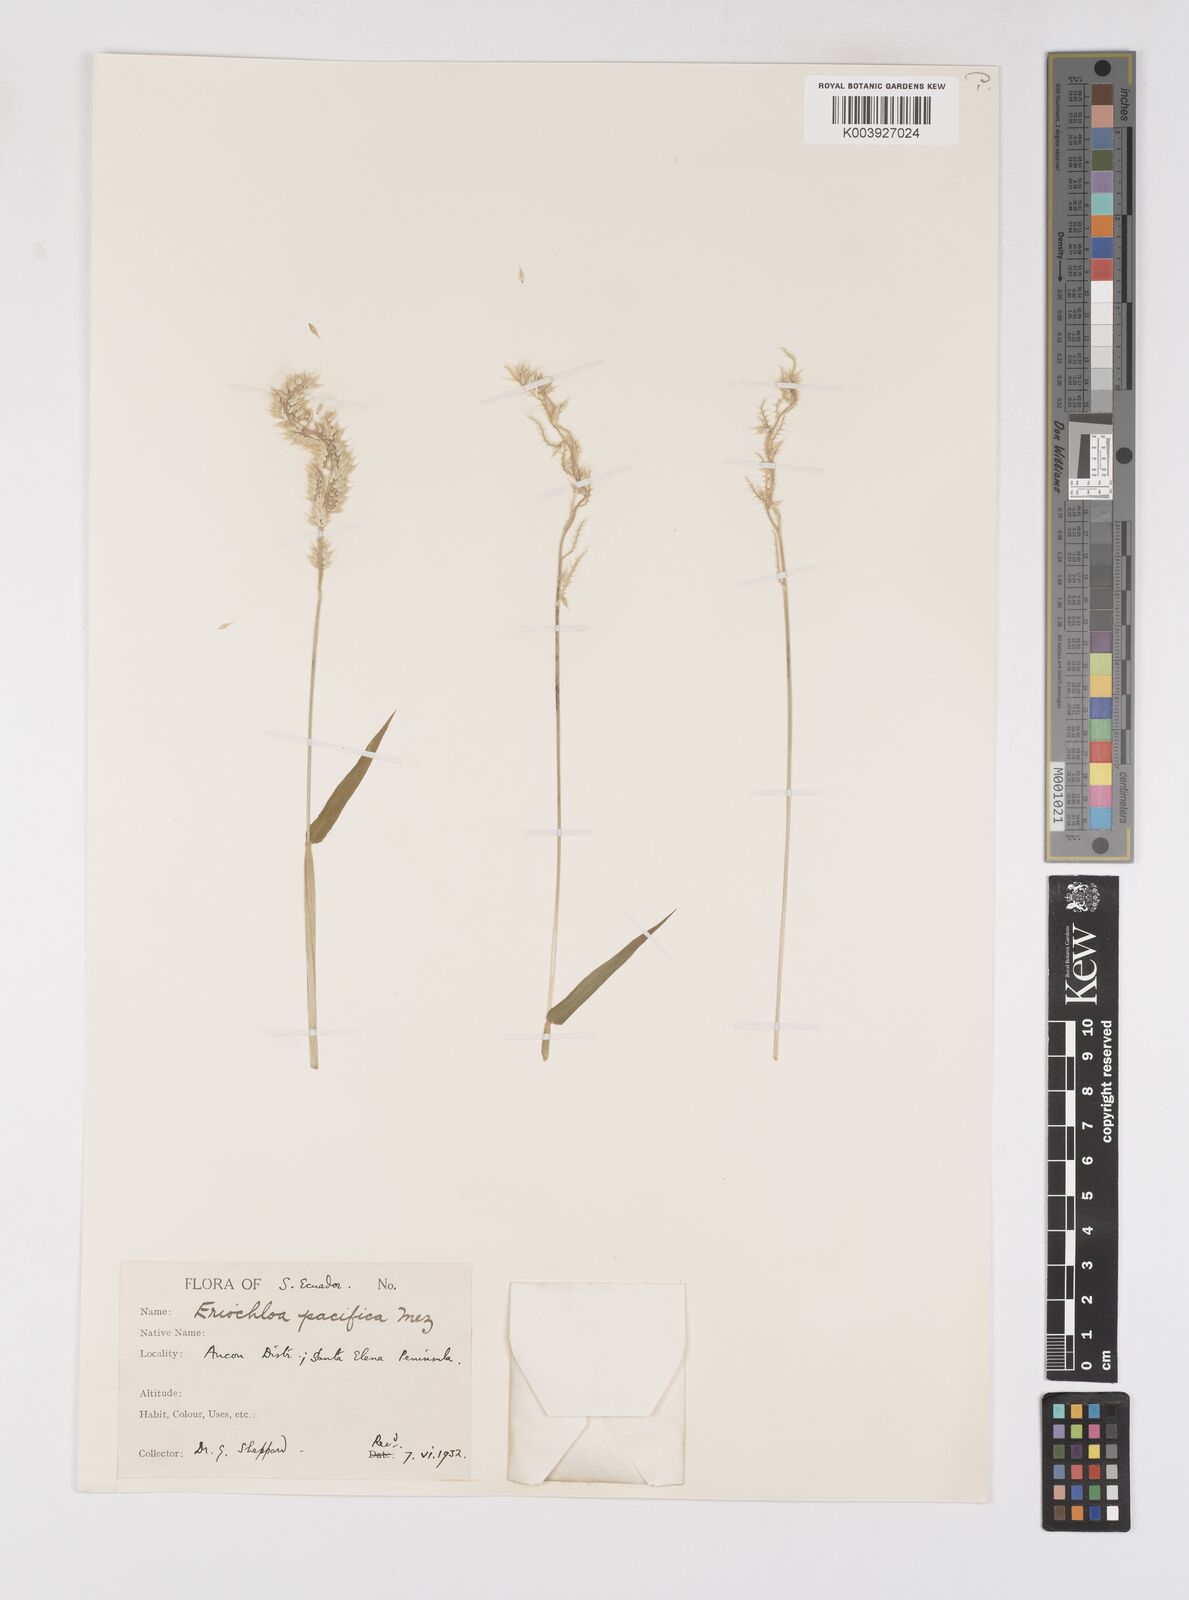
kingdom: Plantae
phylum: Tracheophyta
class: Liliopsida
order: Poales
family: Poaceae
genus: Eriochloa
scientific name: Eriochloa pacifica
